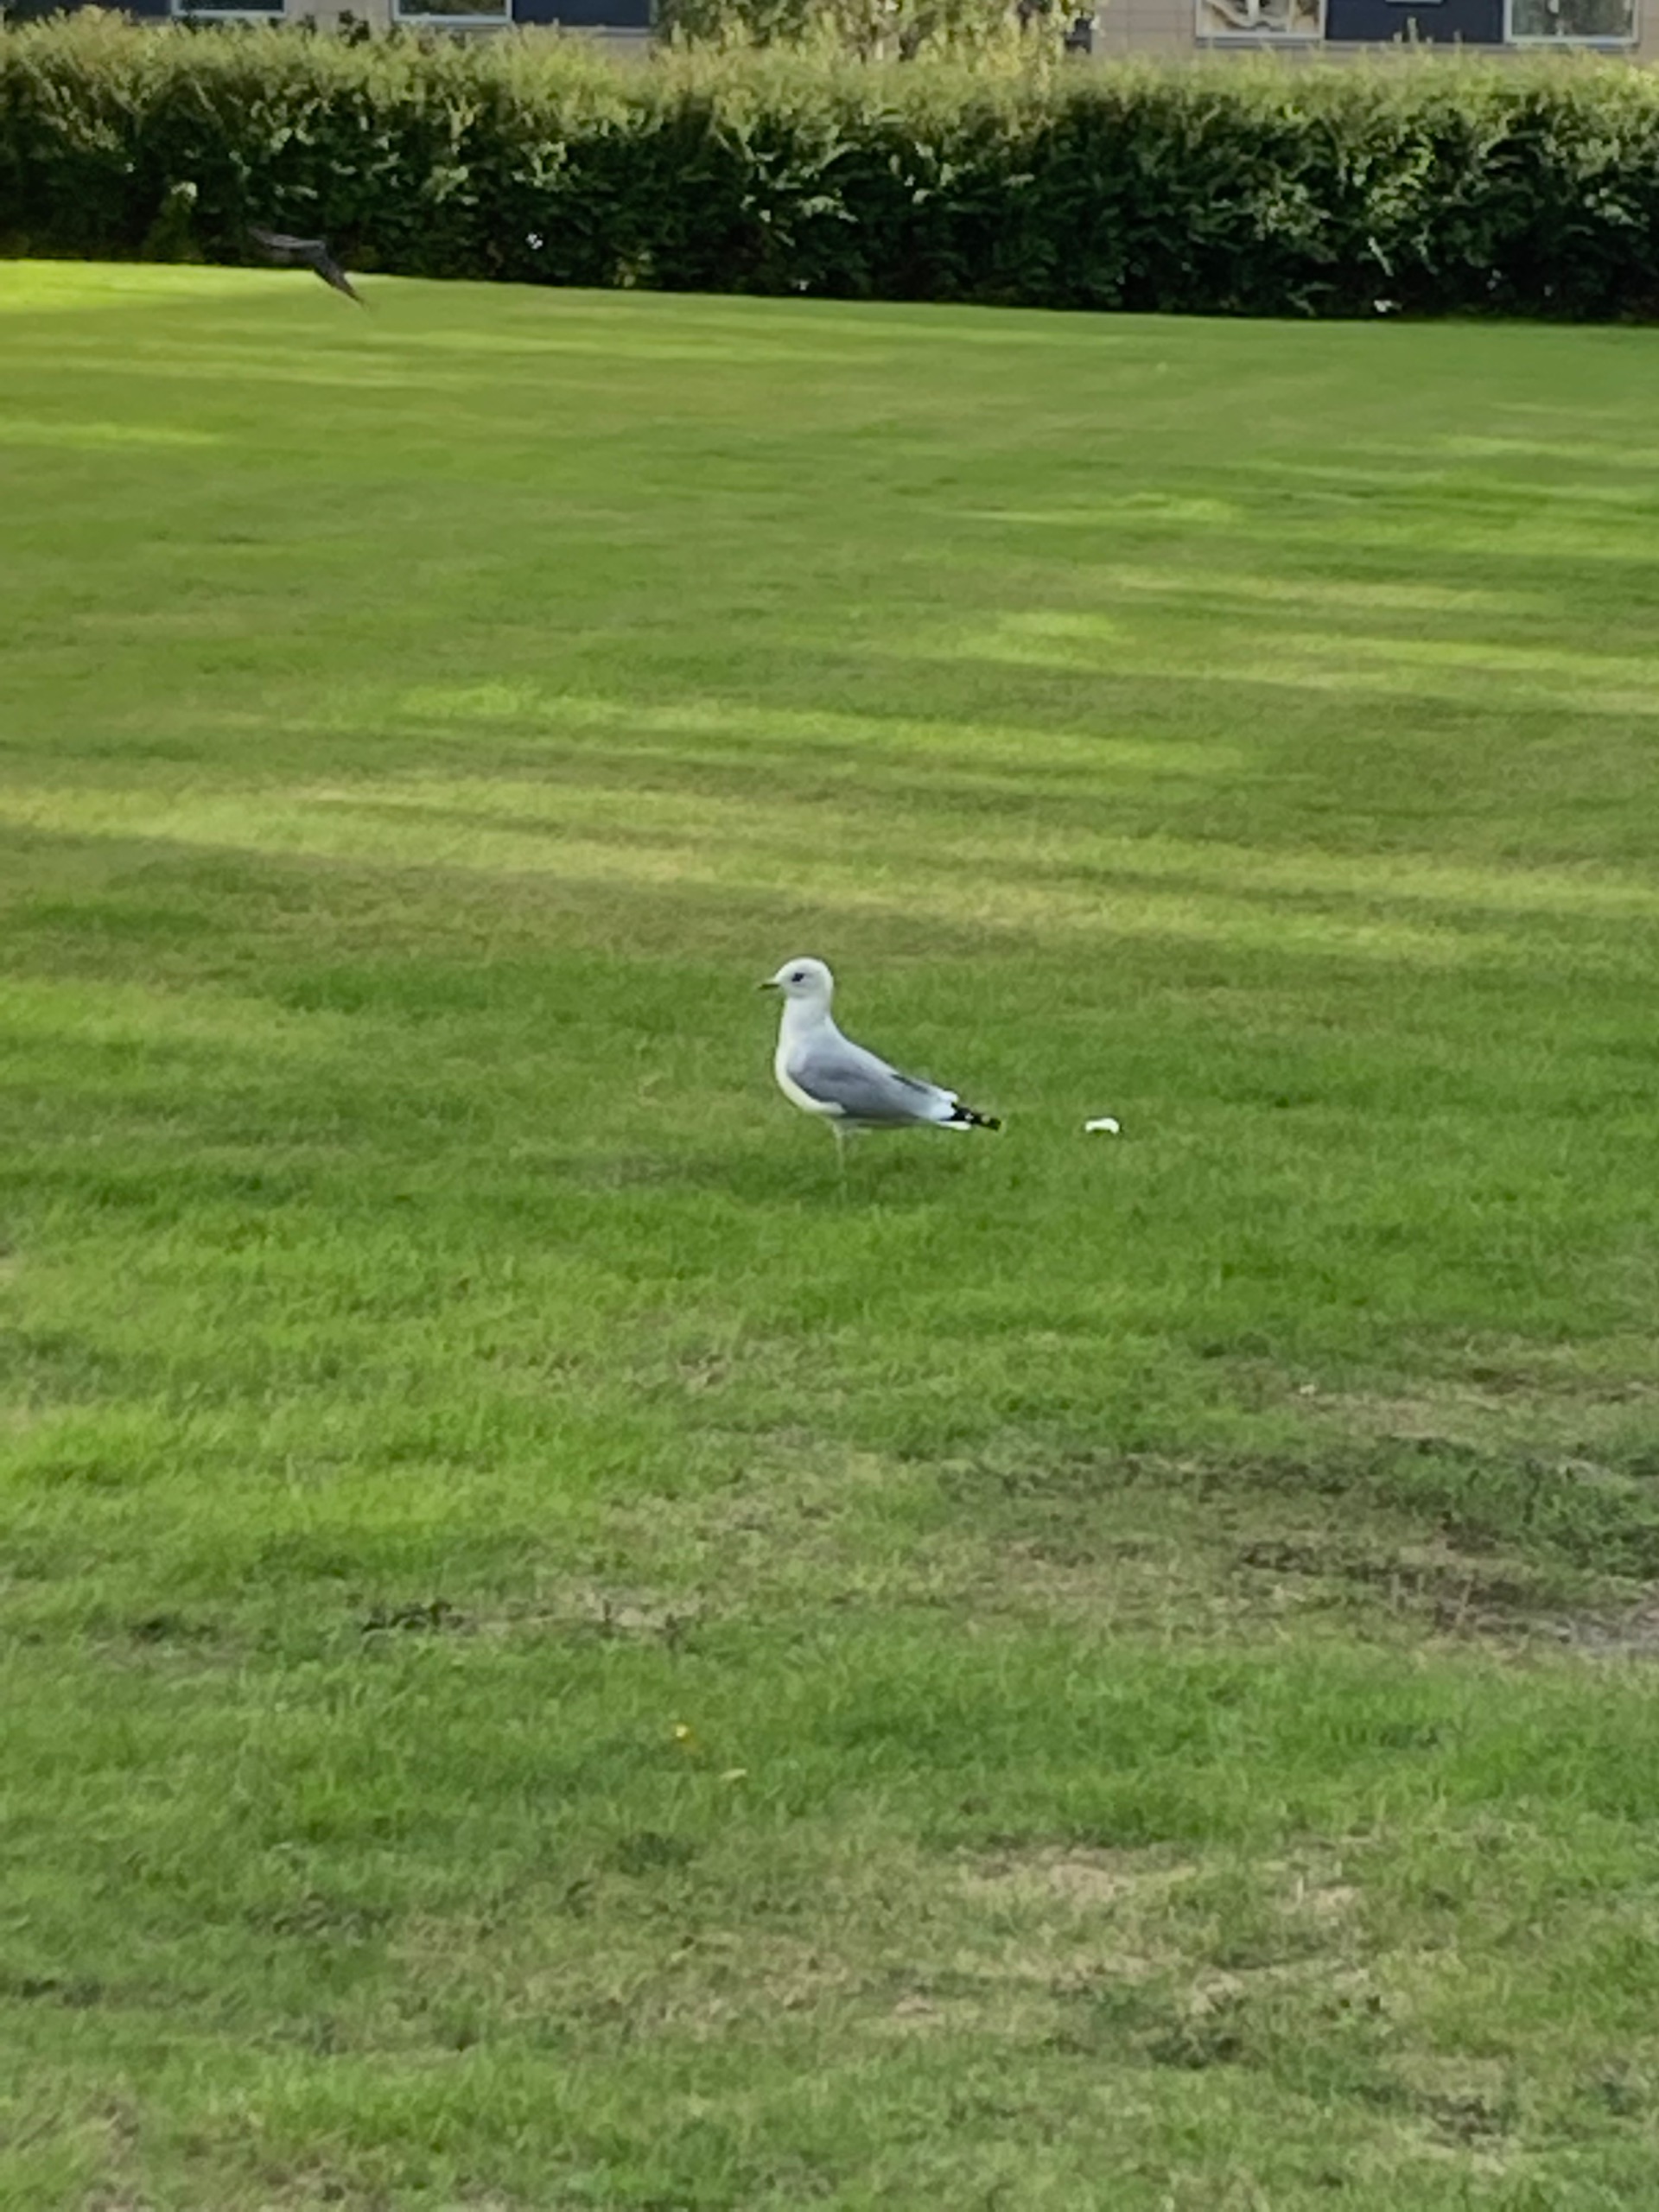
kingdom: Animalia
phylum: Chordata
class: Aves
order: Charadriiformes
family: Laridae
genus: Larus
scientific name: Larus canus
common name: Stormmåge
